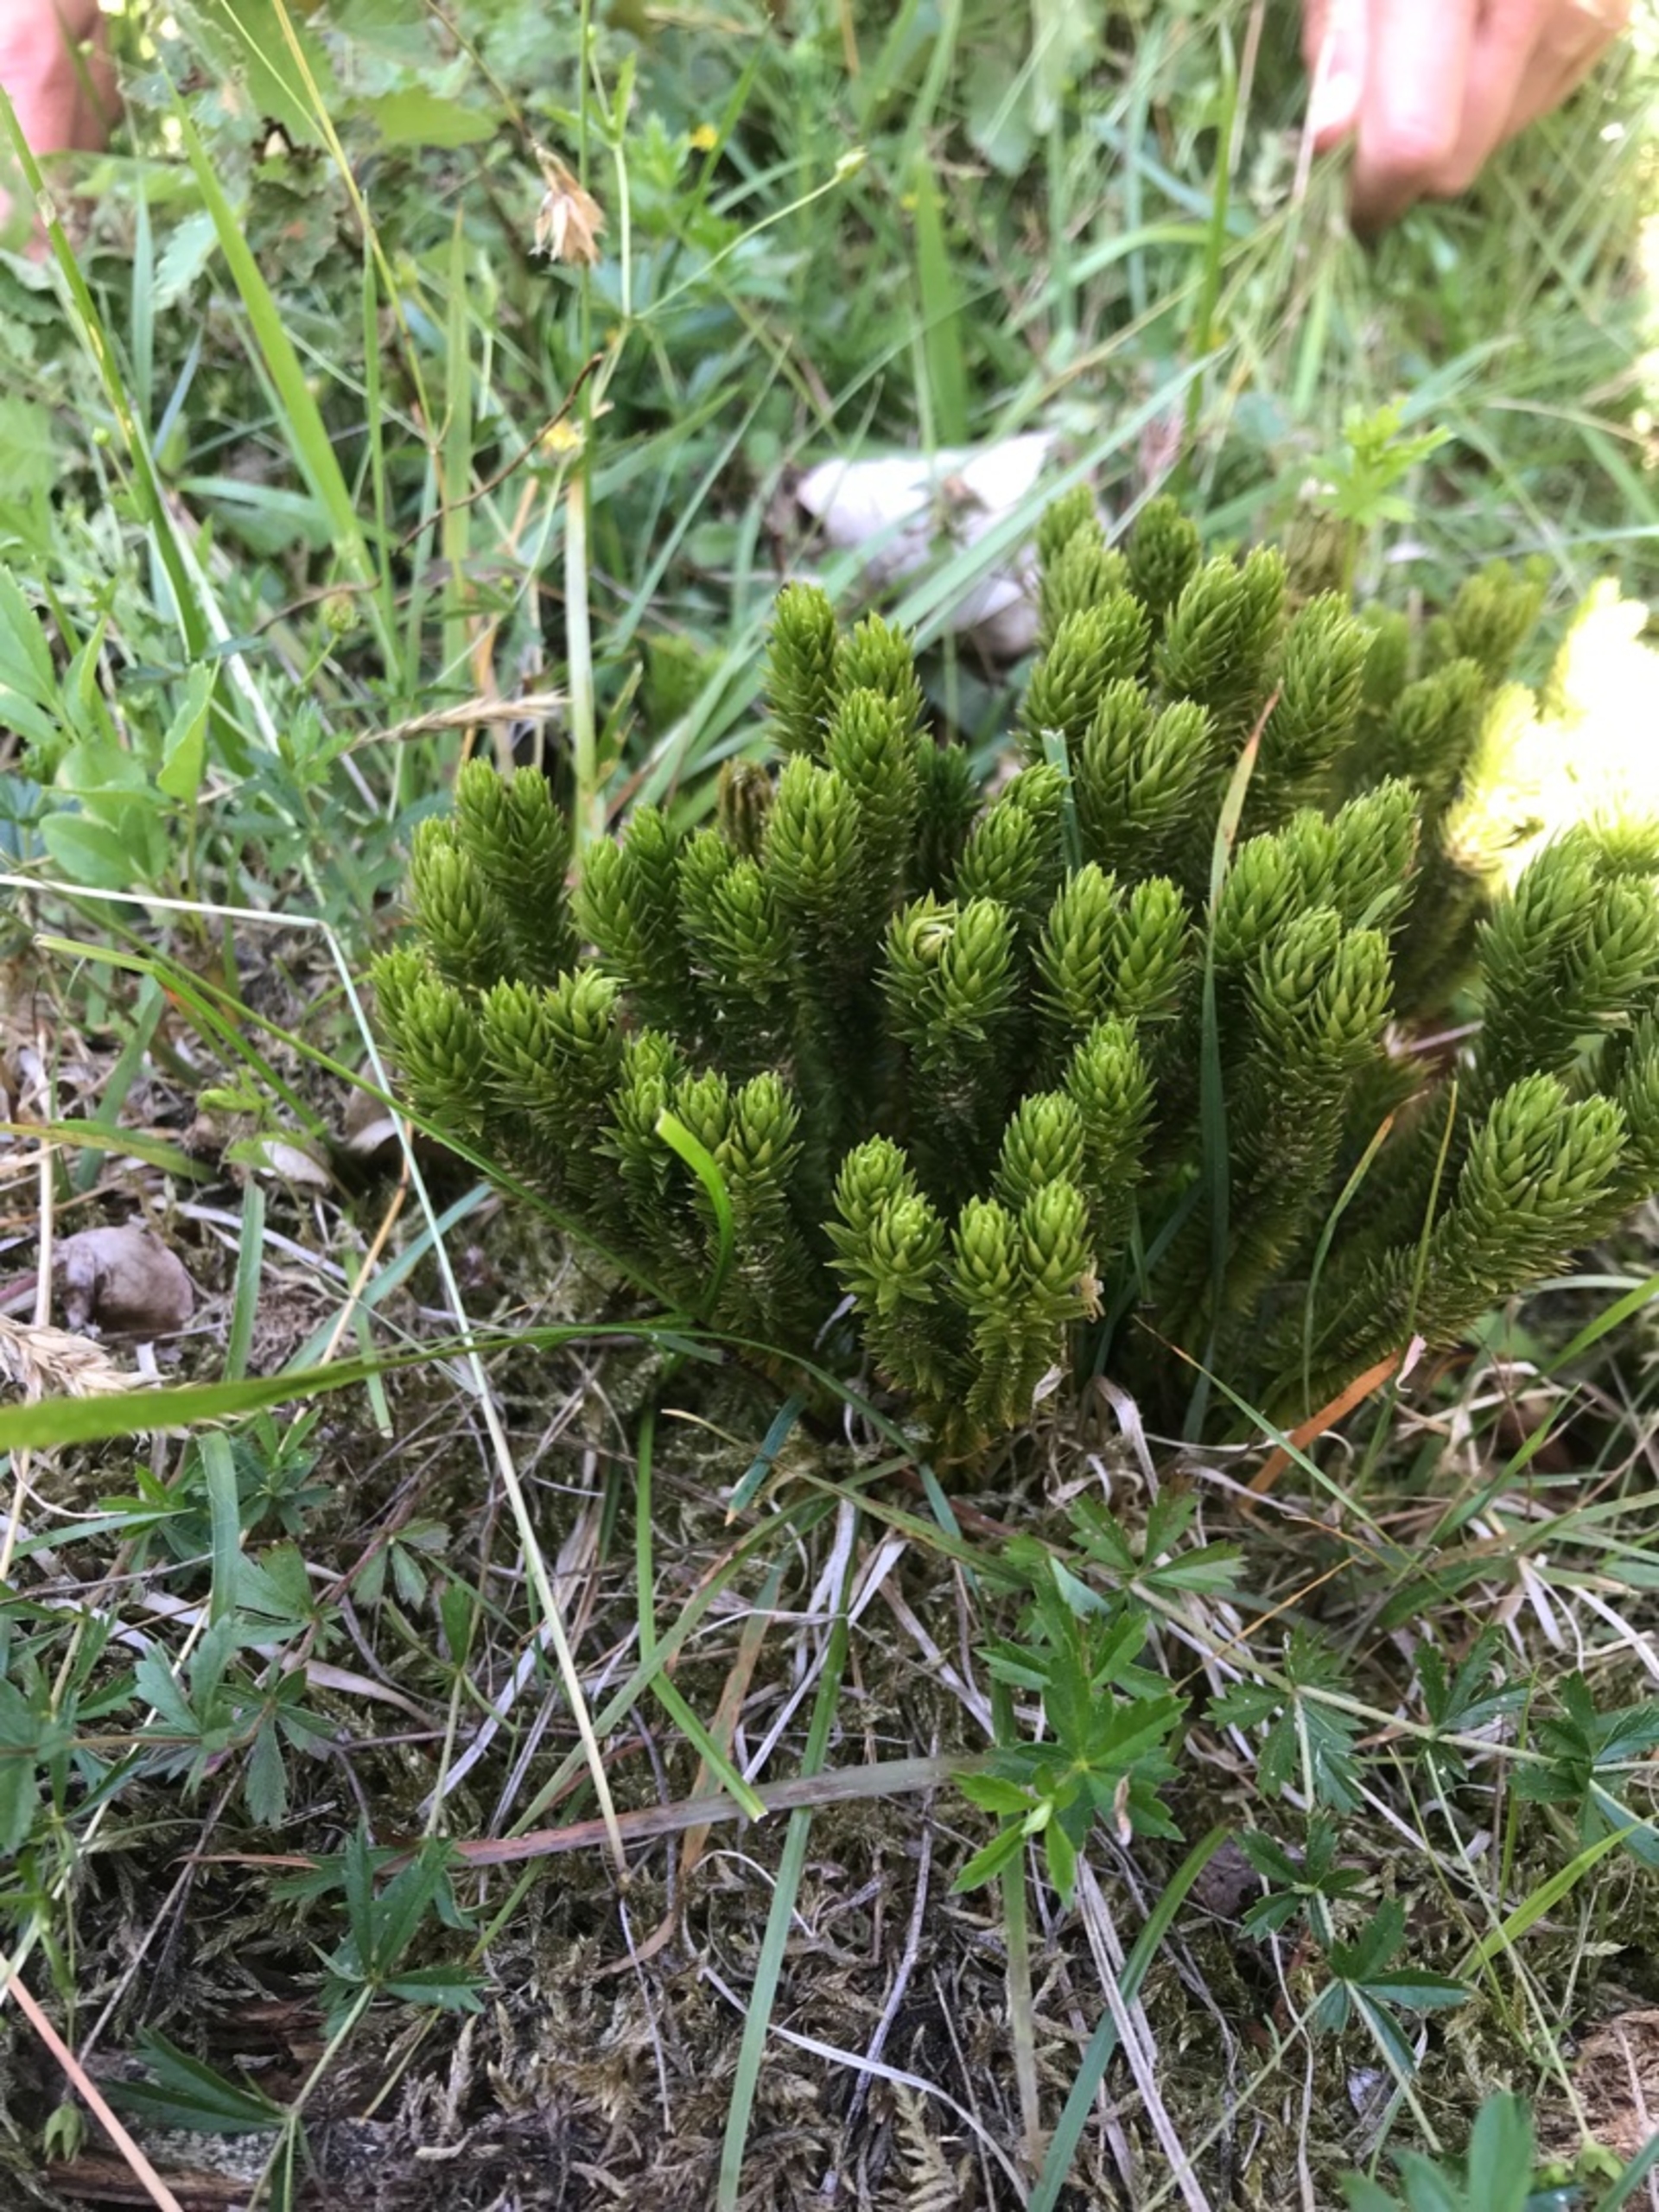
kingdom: Plantae
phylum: Tracheophyta
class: Lycopodiopsida
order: Lycopodiales
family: Lycopodiaceae
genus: Huperzia
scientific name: Huperzia selago
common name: Otteradet ulvefod
